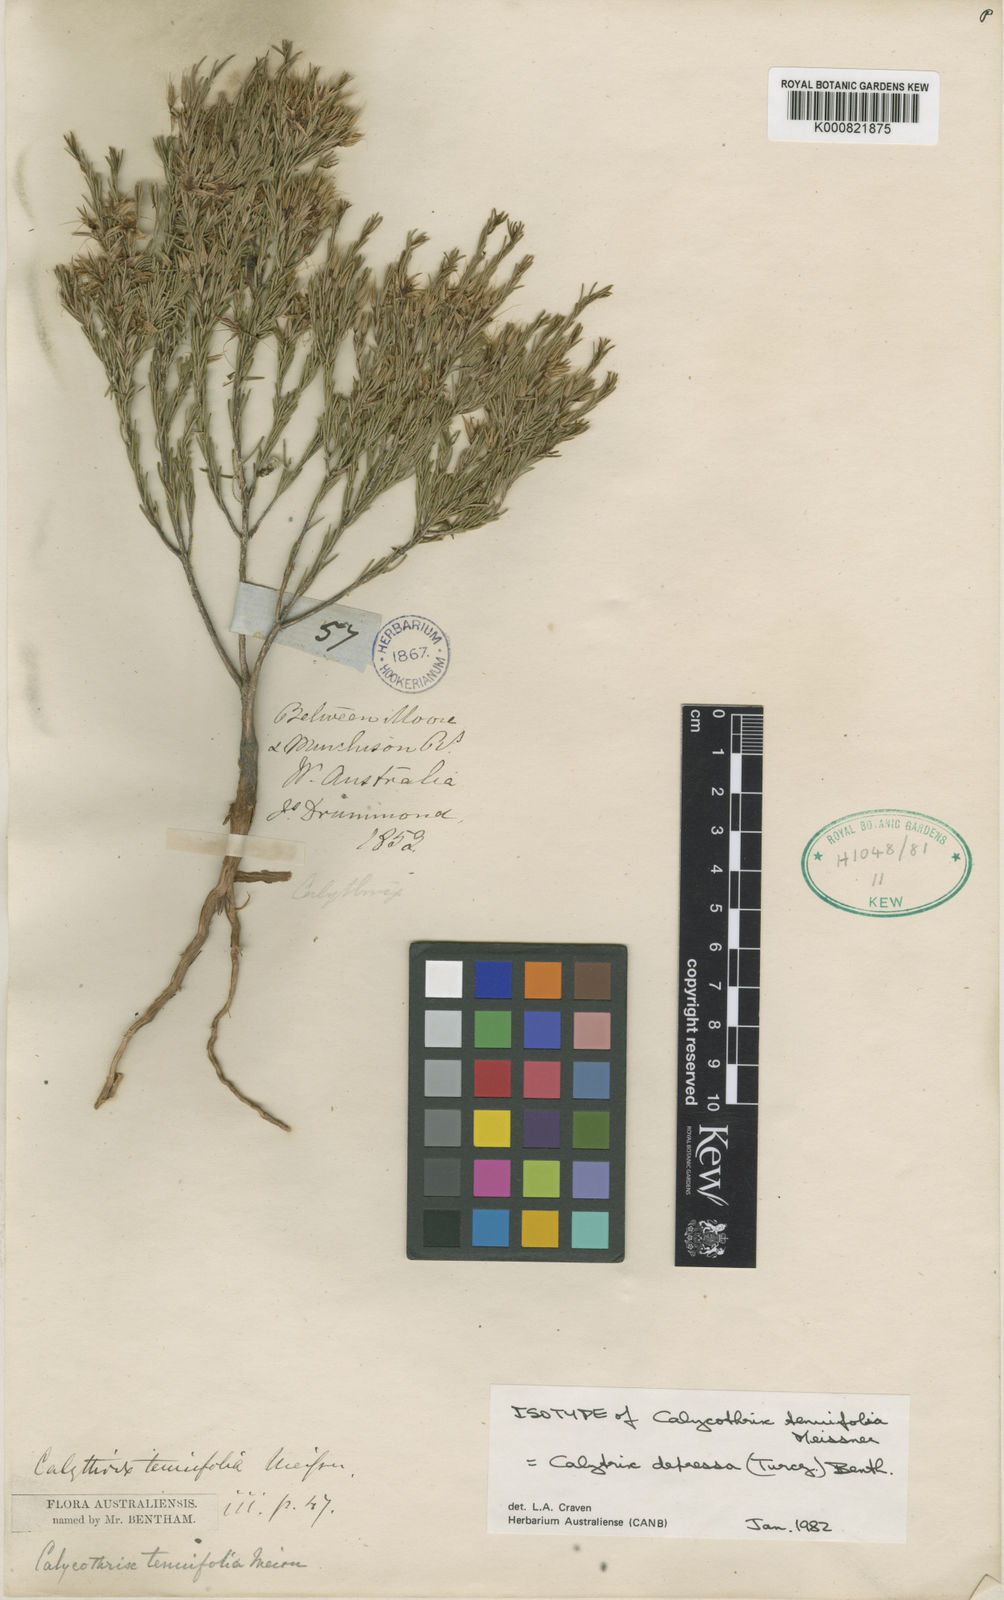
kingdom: Plantae
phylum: Tracheophyta
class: Magnoliopsida
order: Myrtales
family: Myrtaceae
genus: Calytrix
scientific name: Calytrix depressa
